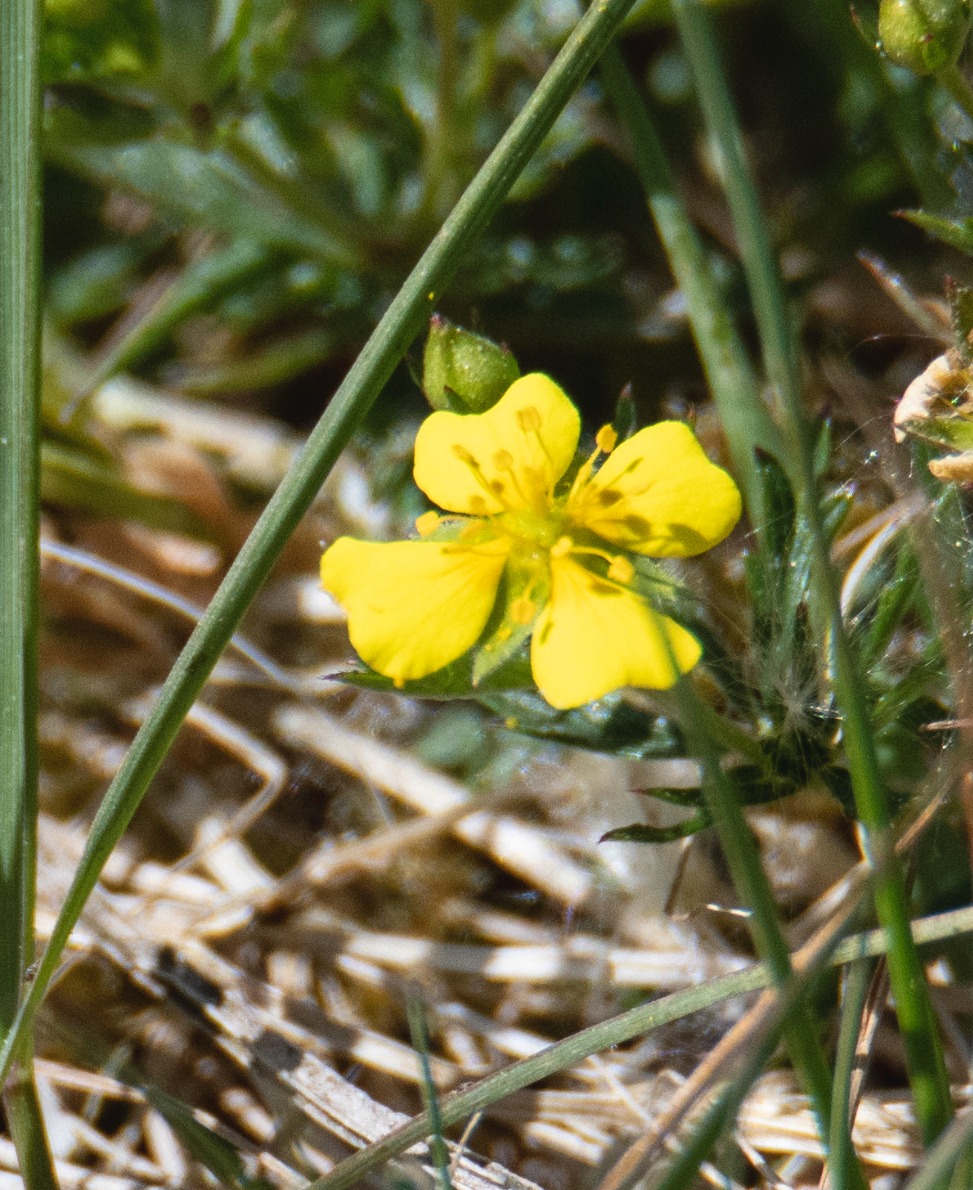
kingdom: Plantae
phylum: Tracheophyta
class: Magnoliopsida
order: Rosales
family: Rosaceae
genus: Potentilla
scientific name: Potentilla erecta
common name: Tormentil
